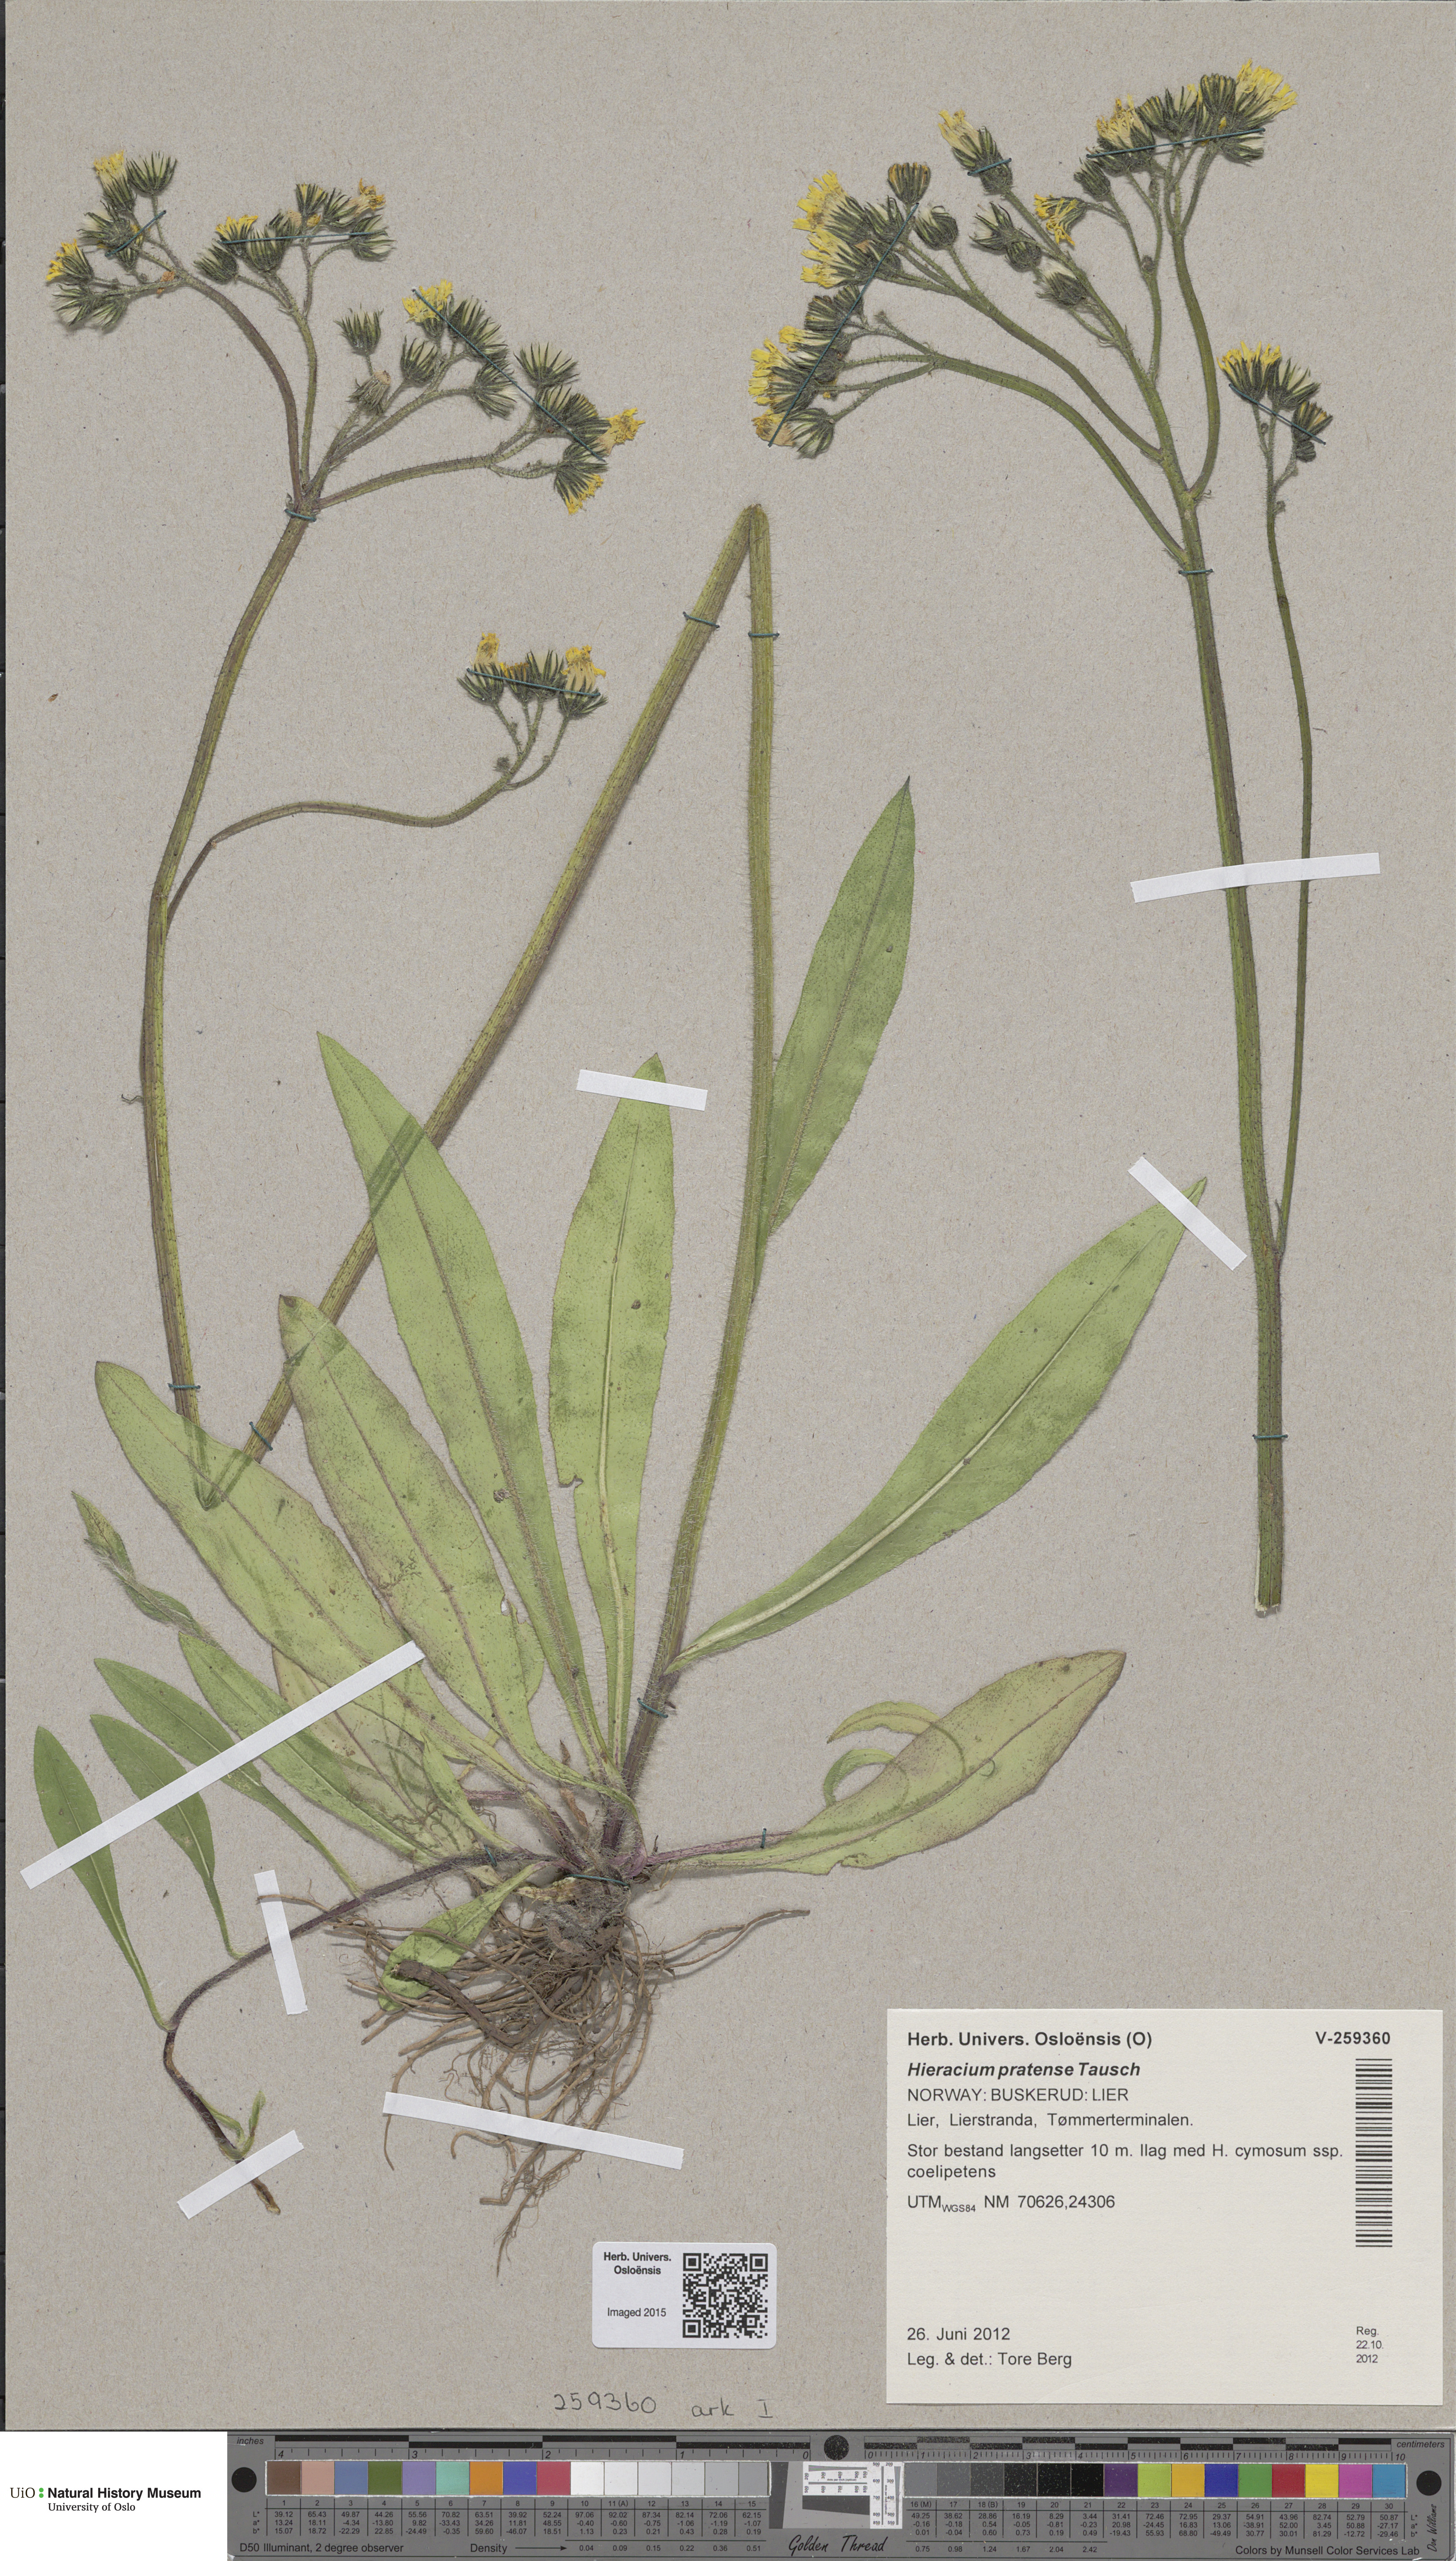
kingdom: Plantae
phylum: Tracheophyta
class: Magnoliopsida
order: Asterales
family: Asteraceae
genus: Pilosella
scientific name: Pilosella caespitosa
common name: Yellow fox-and-cubs
